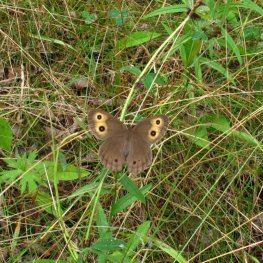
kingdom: Animalia
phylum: Arthropoda
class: Insecta
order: Lepidoptera
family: Nymphalidae
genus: Cercyonis
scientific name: Cercyonis pegala
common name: Common Wood-Nymph
